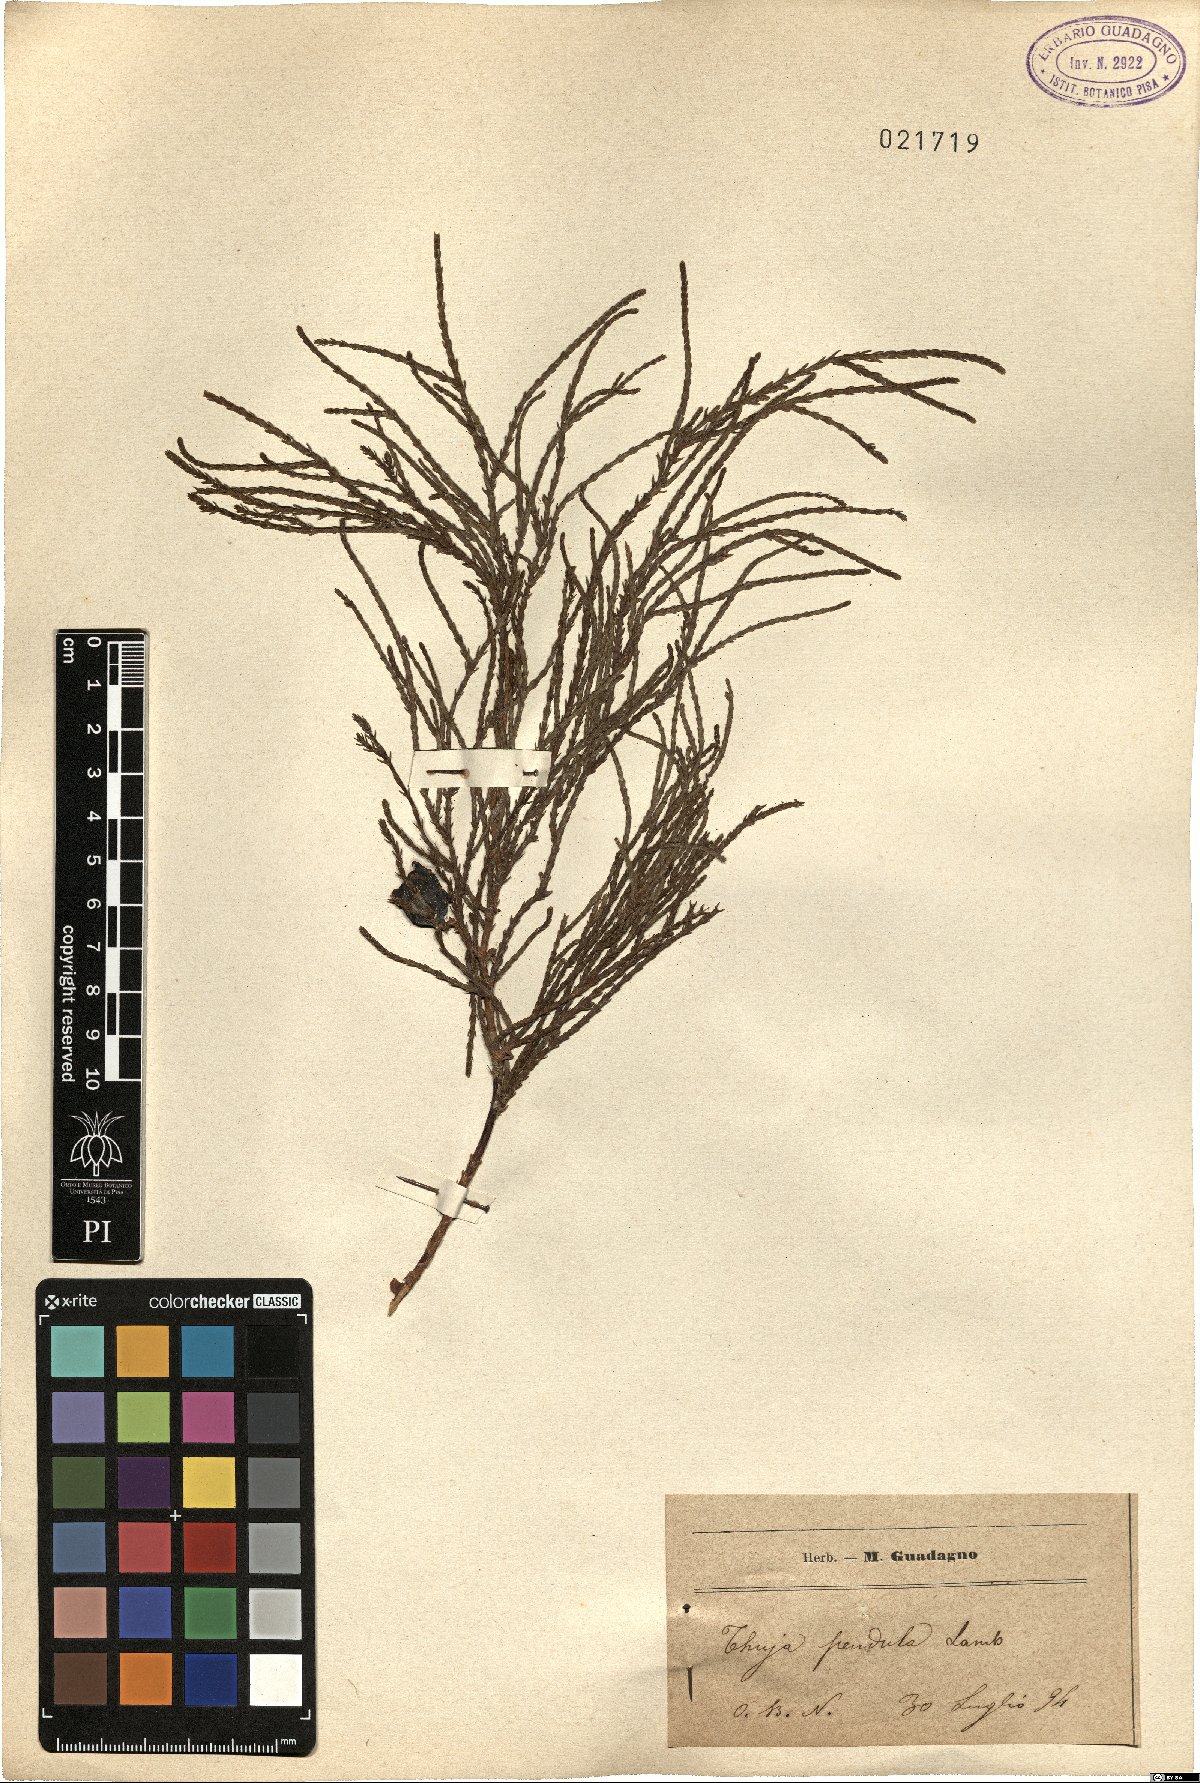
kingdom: Plantae
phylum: Tracheophyta
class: Pinopsida
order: Pinales
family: Cupressaceae
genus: Thuja
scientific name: Thuja
